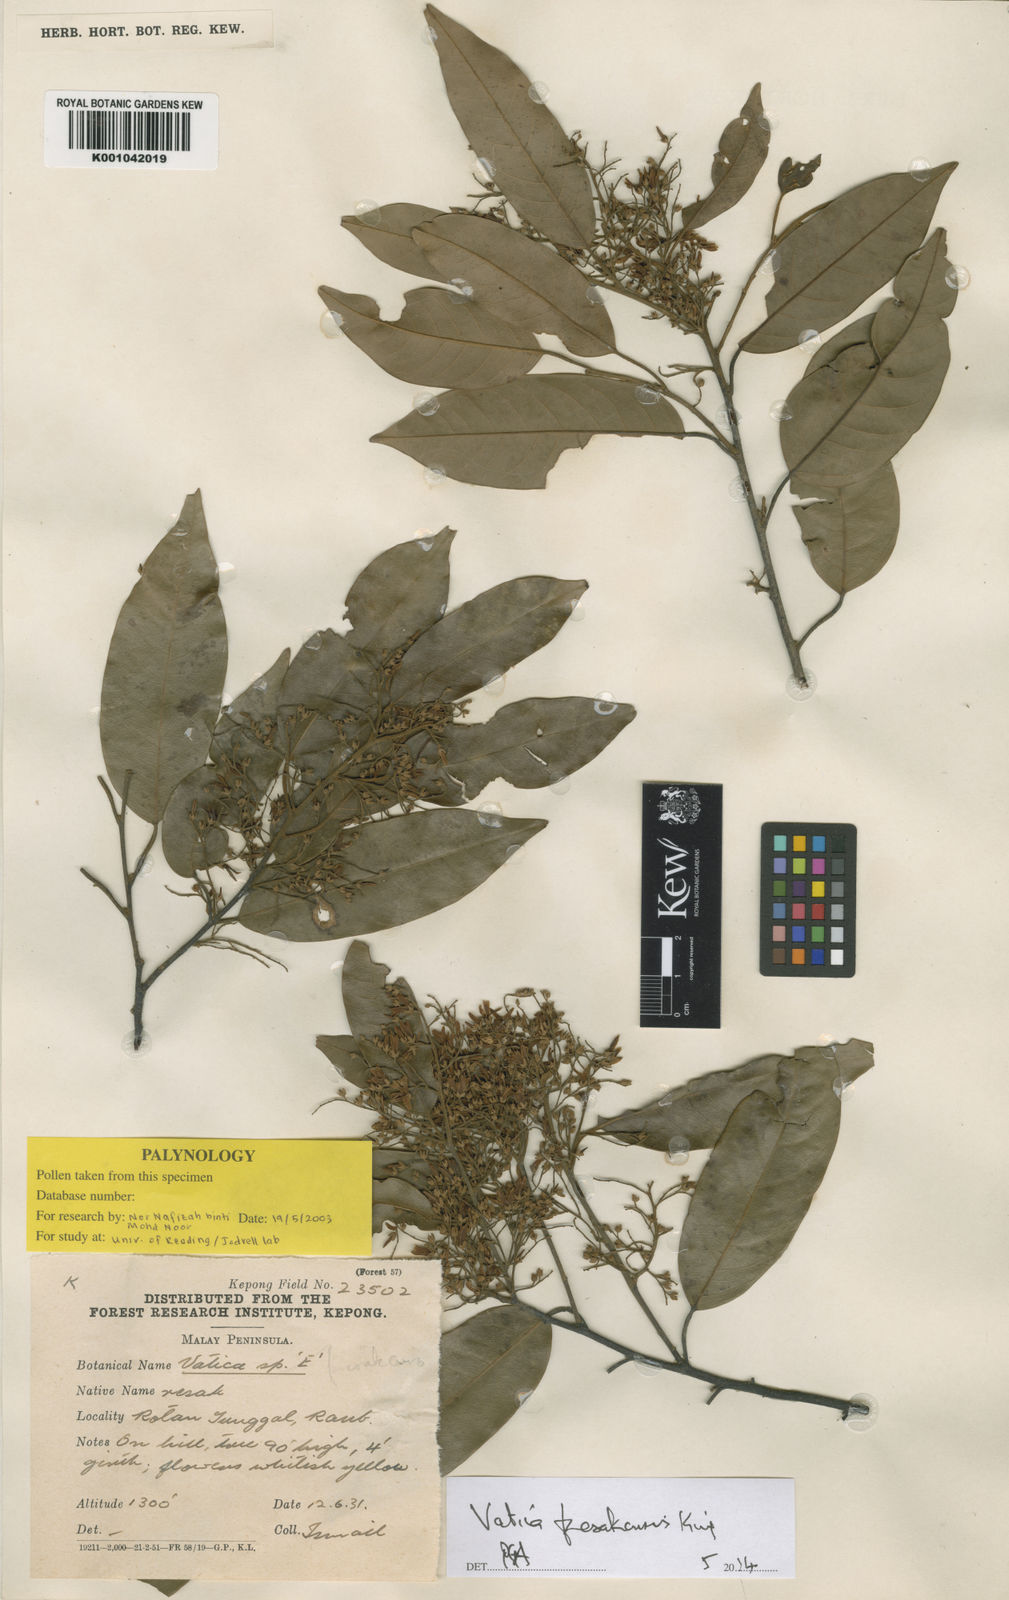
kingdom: Plantae
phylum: Tracheophyta
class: Magnoliopsida
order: Malvales
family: Dipterocarpaceae
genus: Vatica
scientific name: Vatica perakensis
